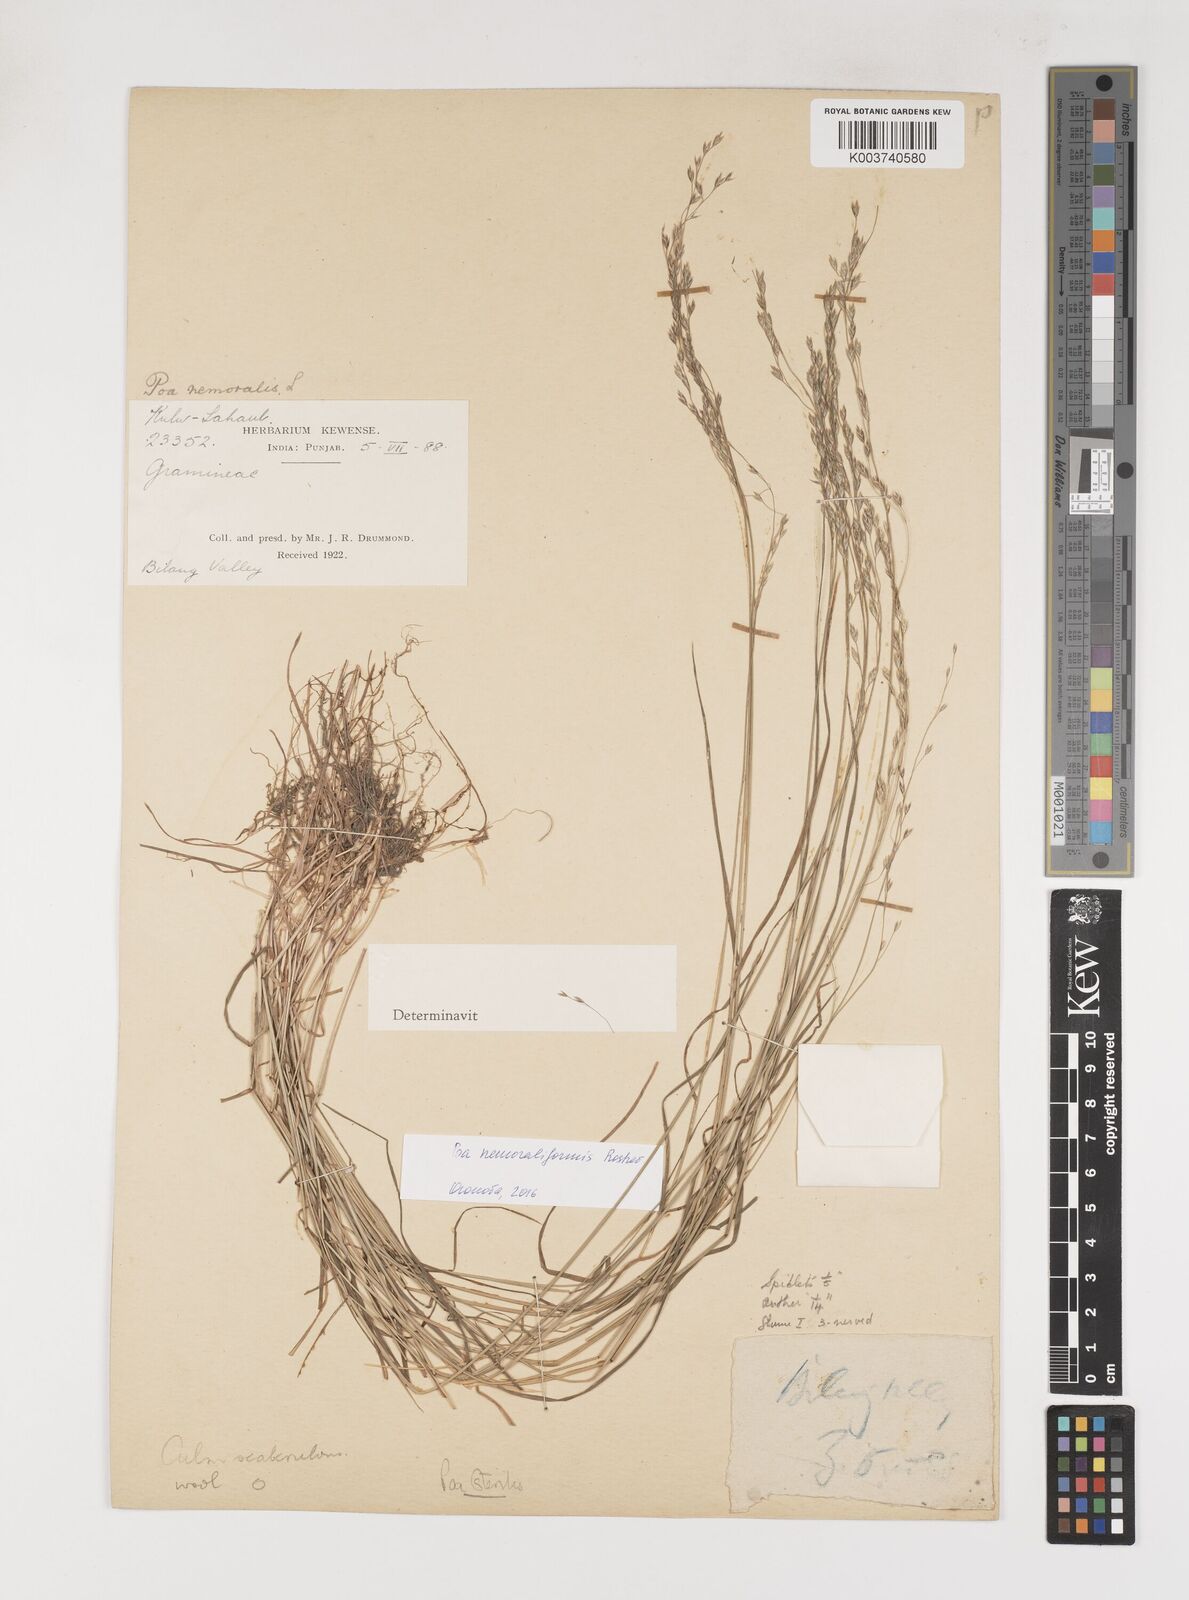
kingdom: Plantae
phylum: Tracheophyta
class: Liliopsida
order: Poales
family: Poaceae
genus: Poa
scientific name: Poa sterilis
